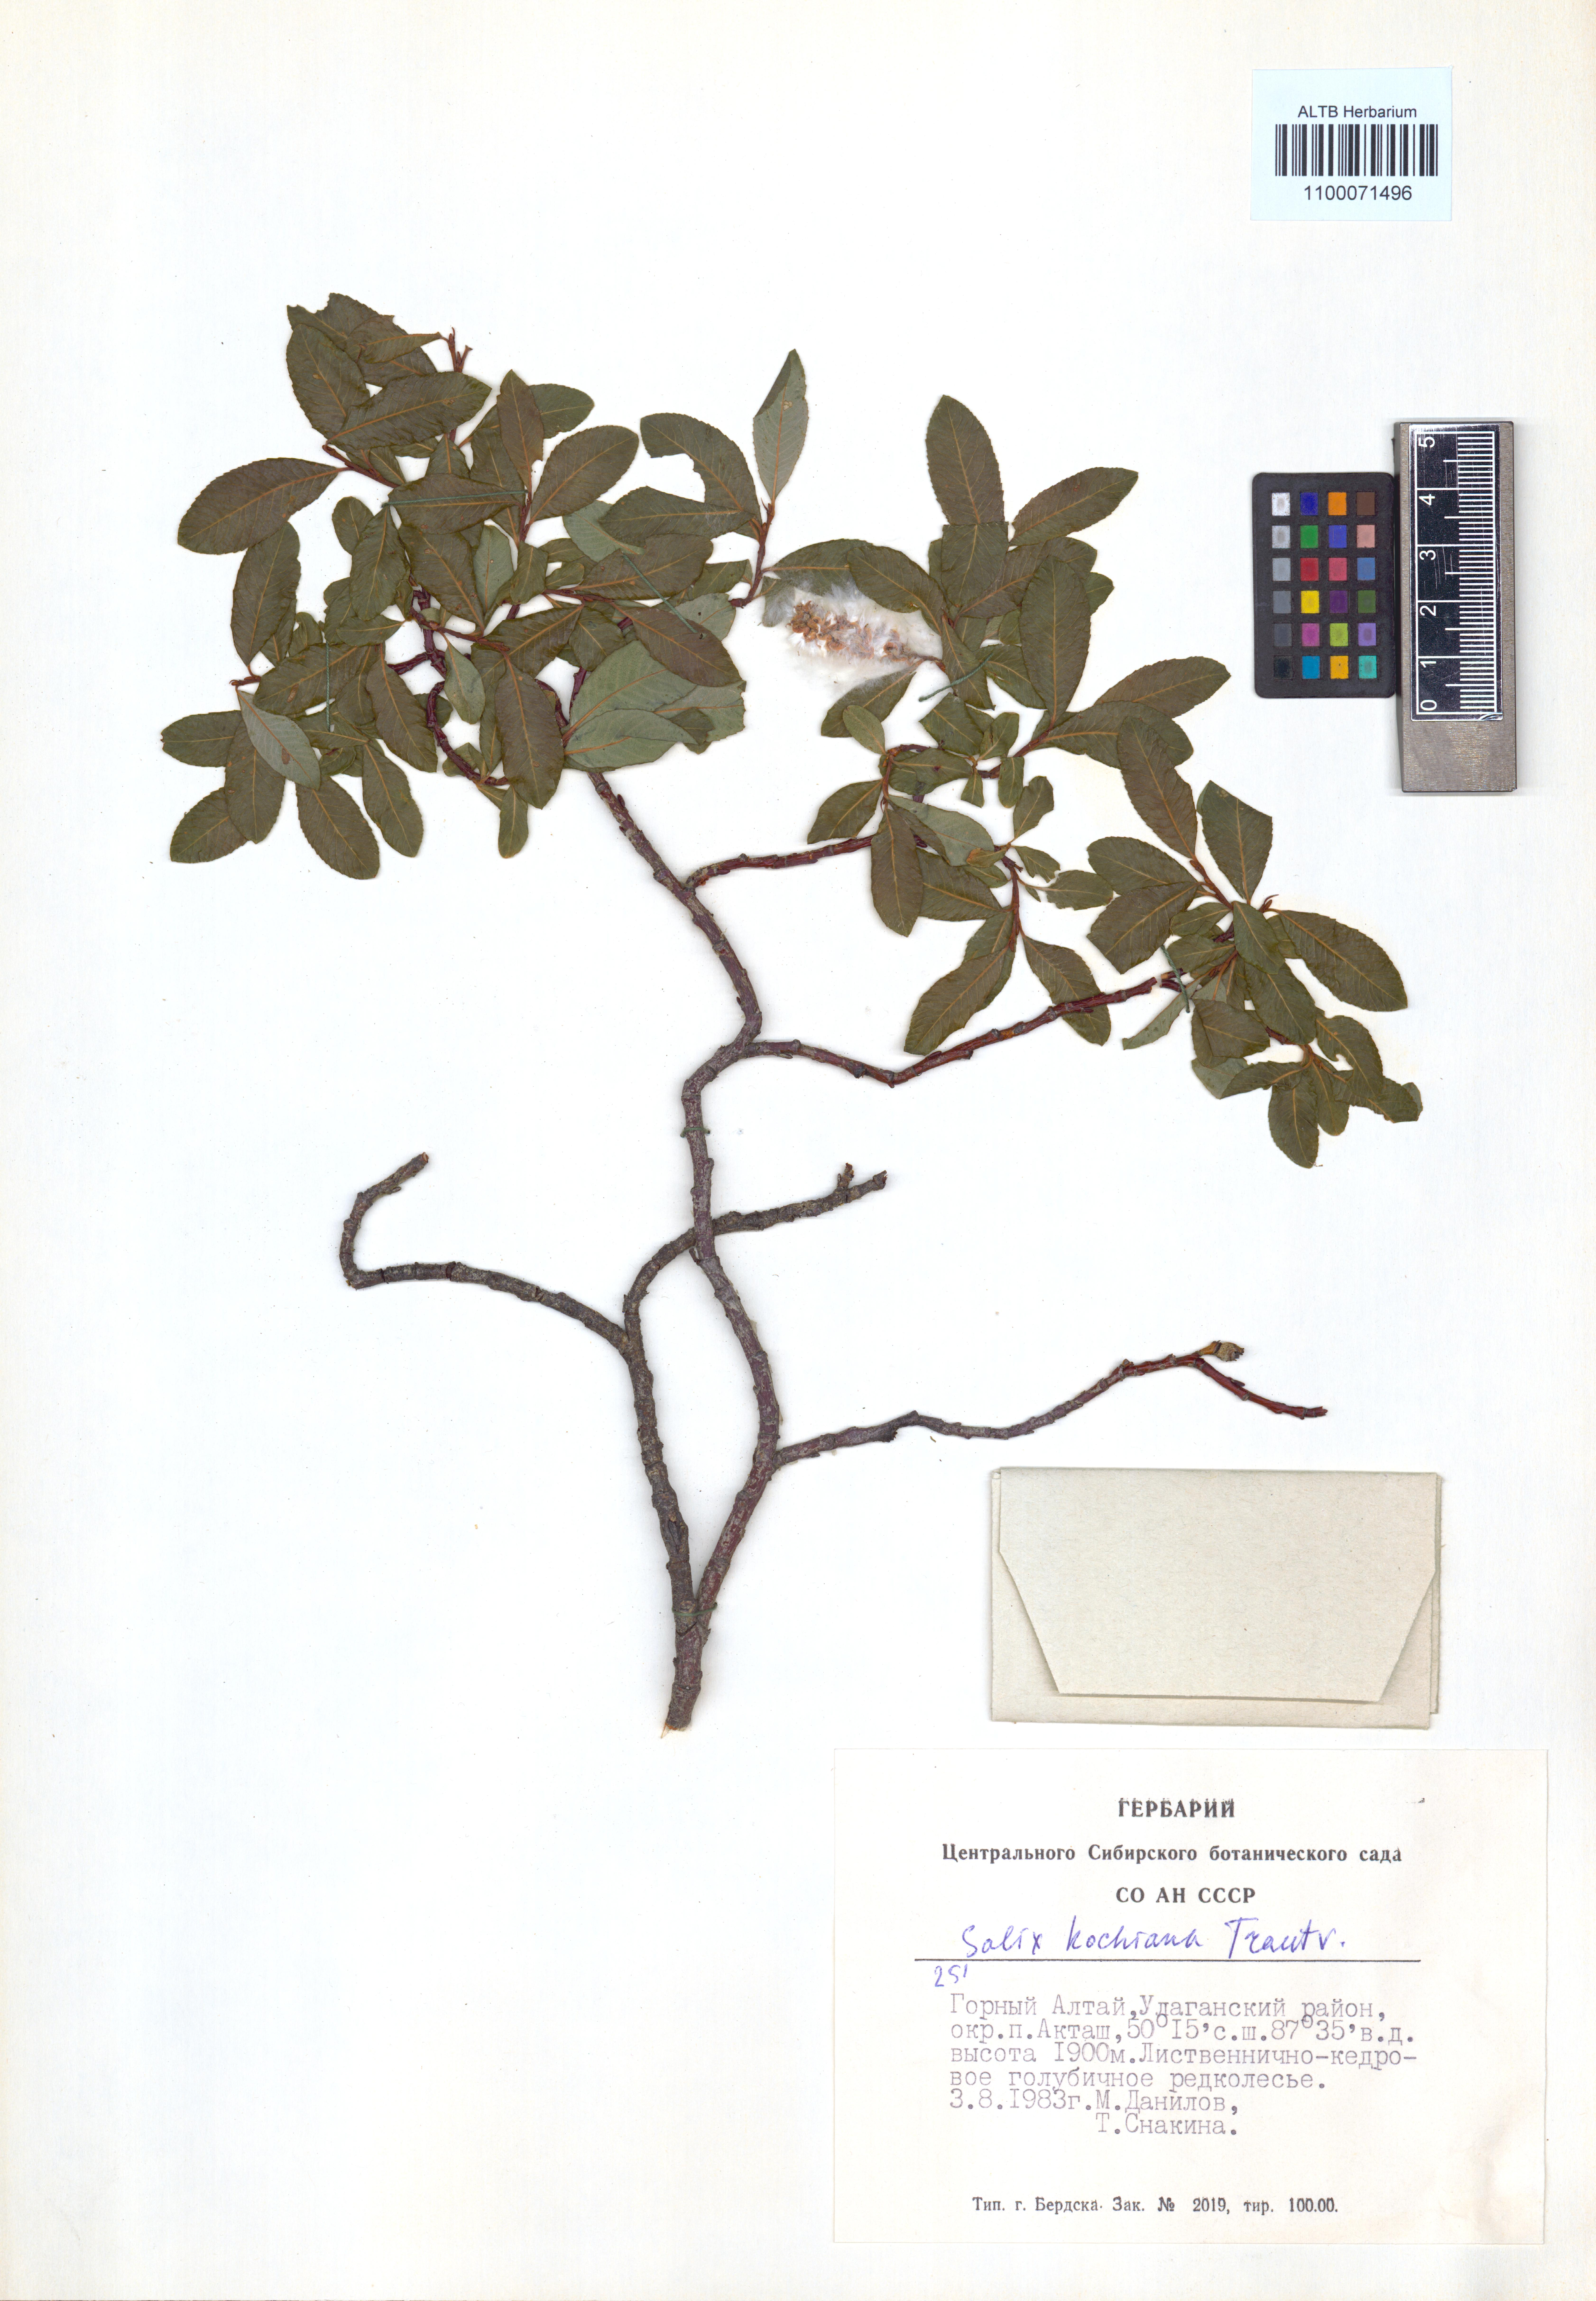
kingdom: Plantae
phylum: Tracheophyta
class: Magnoliopsida
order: Malpighiales
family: Salicaceae
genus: Salix
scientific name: Salix kochiana
